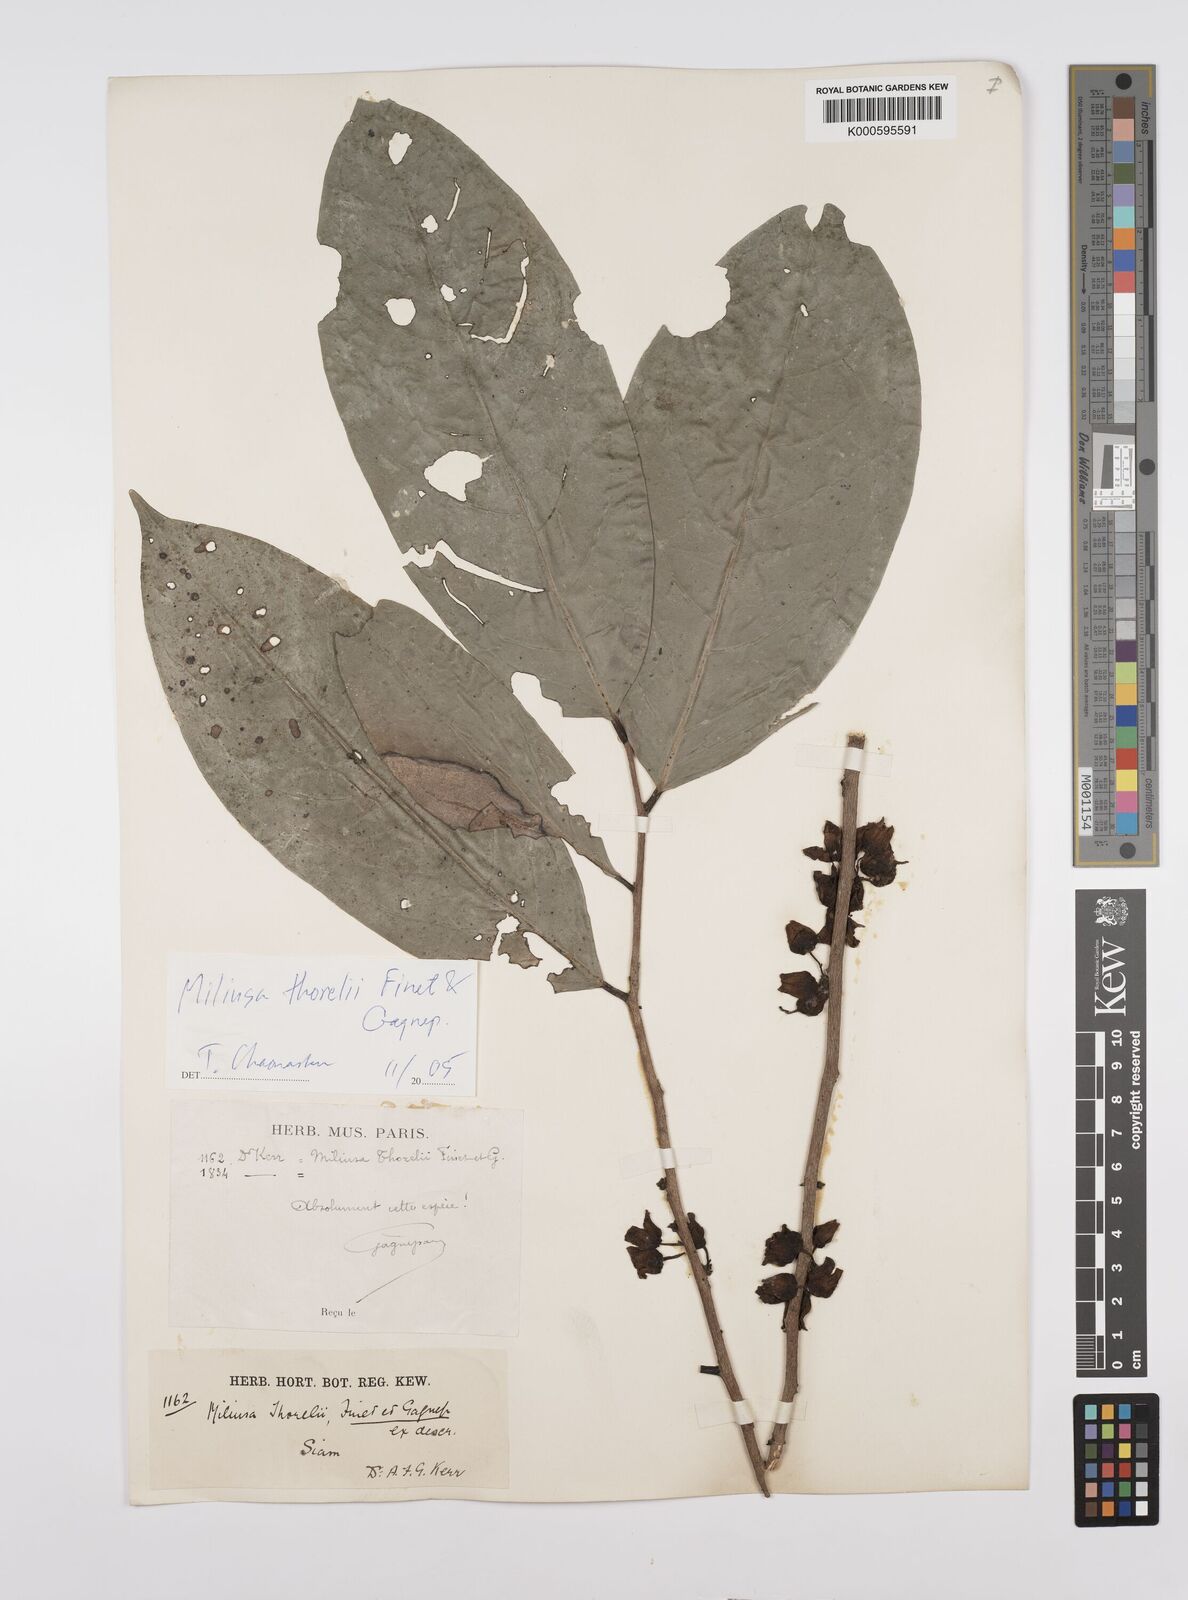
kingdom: Plantae
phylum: Tracheophyta
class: Magnoliopsida
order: Magnoliales
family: Annonaceae
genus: Miliusa
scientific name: Miliusa thorelii
